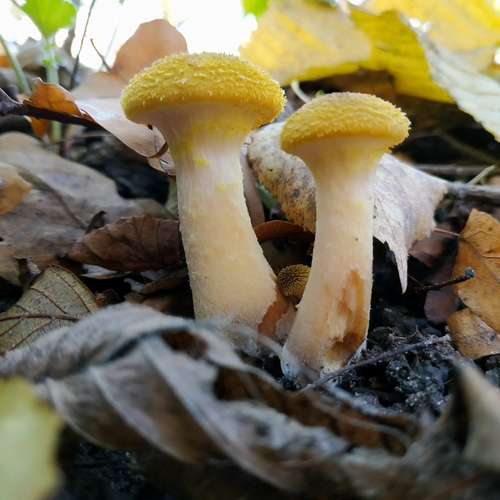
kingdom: Fungi
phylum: Basidiomycota
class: Agaricomycetes
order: Agaricales
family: Physalacriaceae
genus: Armillaria
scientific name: Armillaria gallica
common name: Bulbous honey fungus
